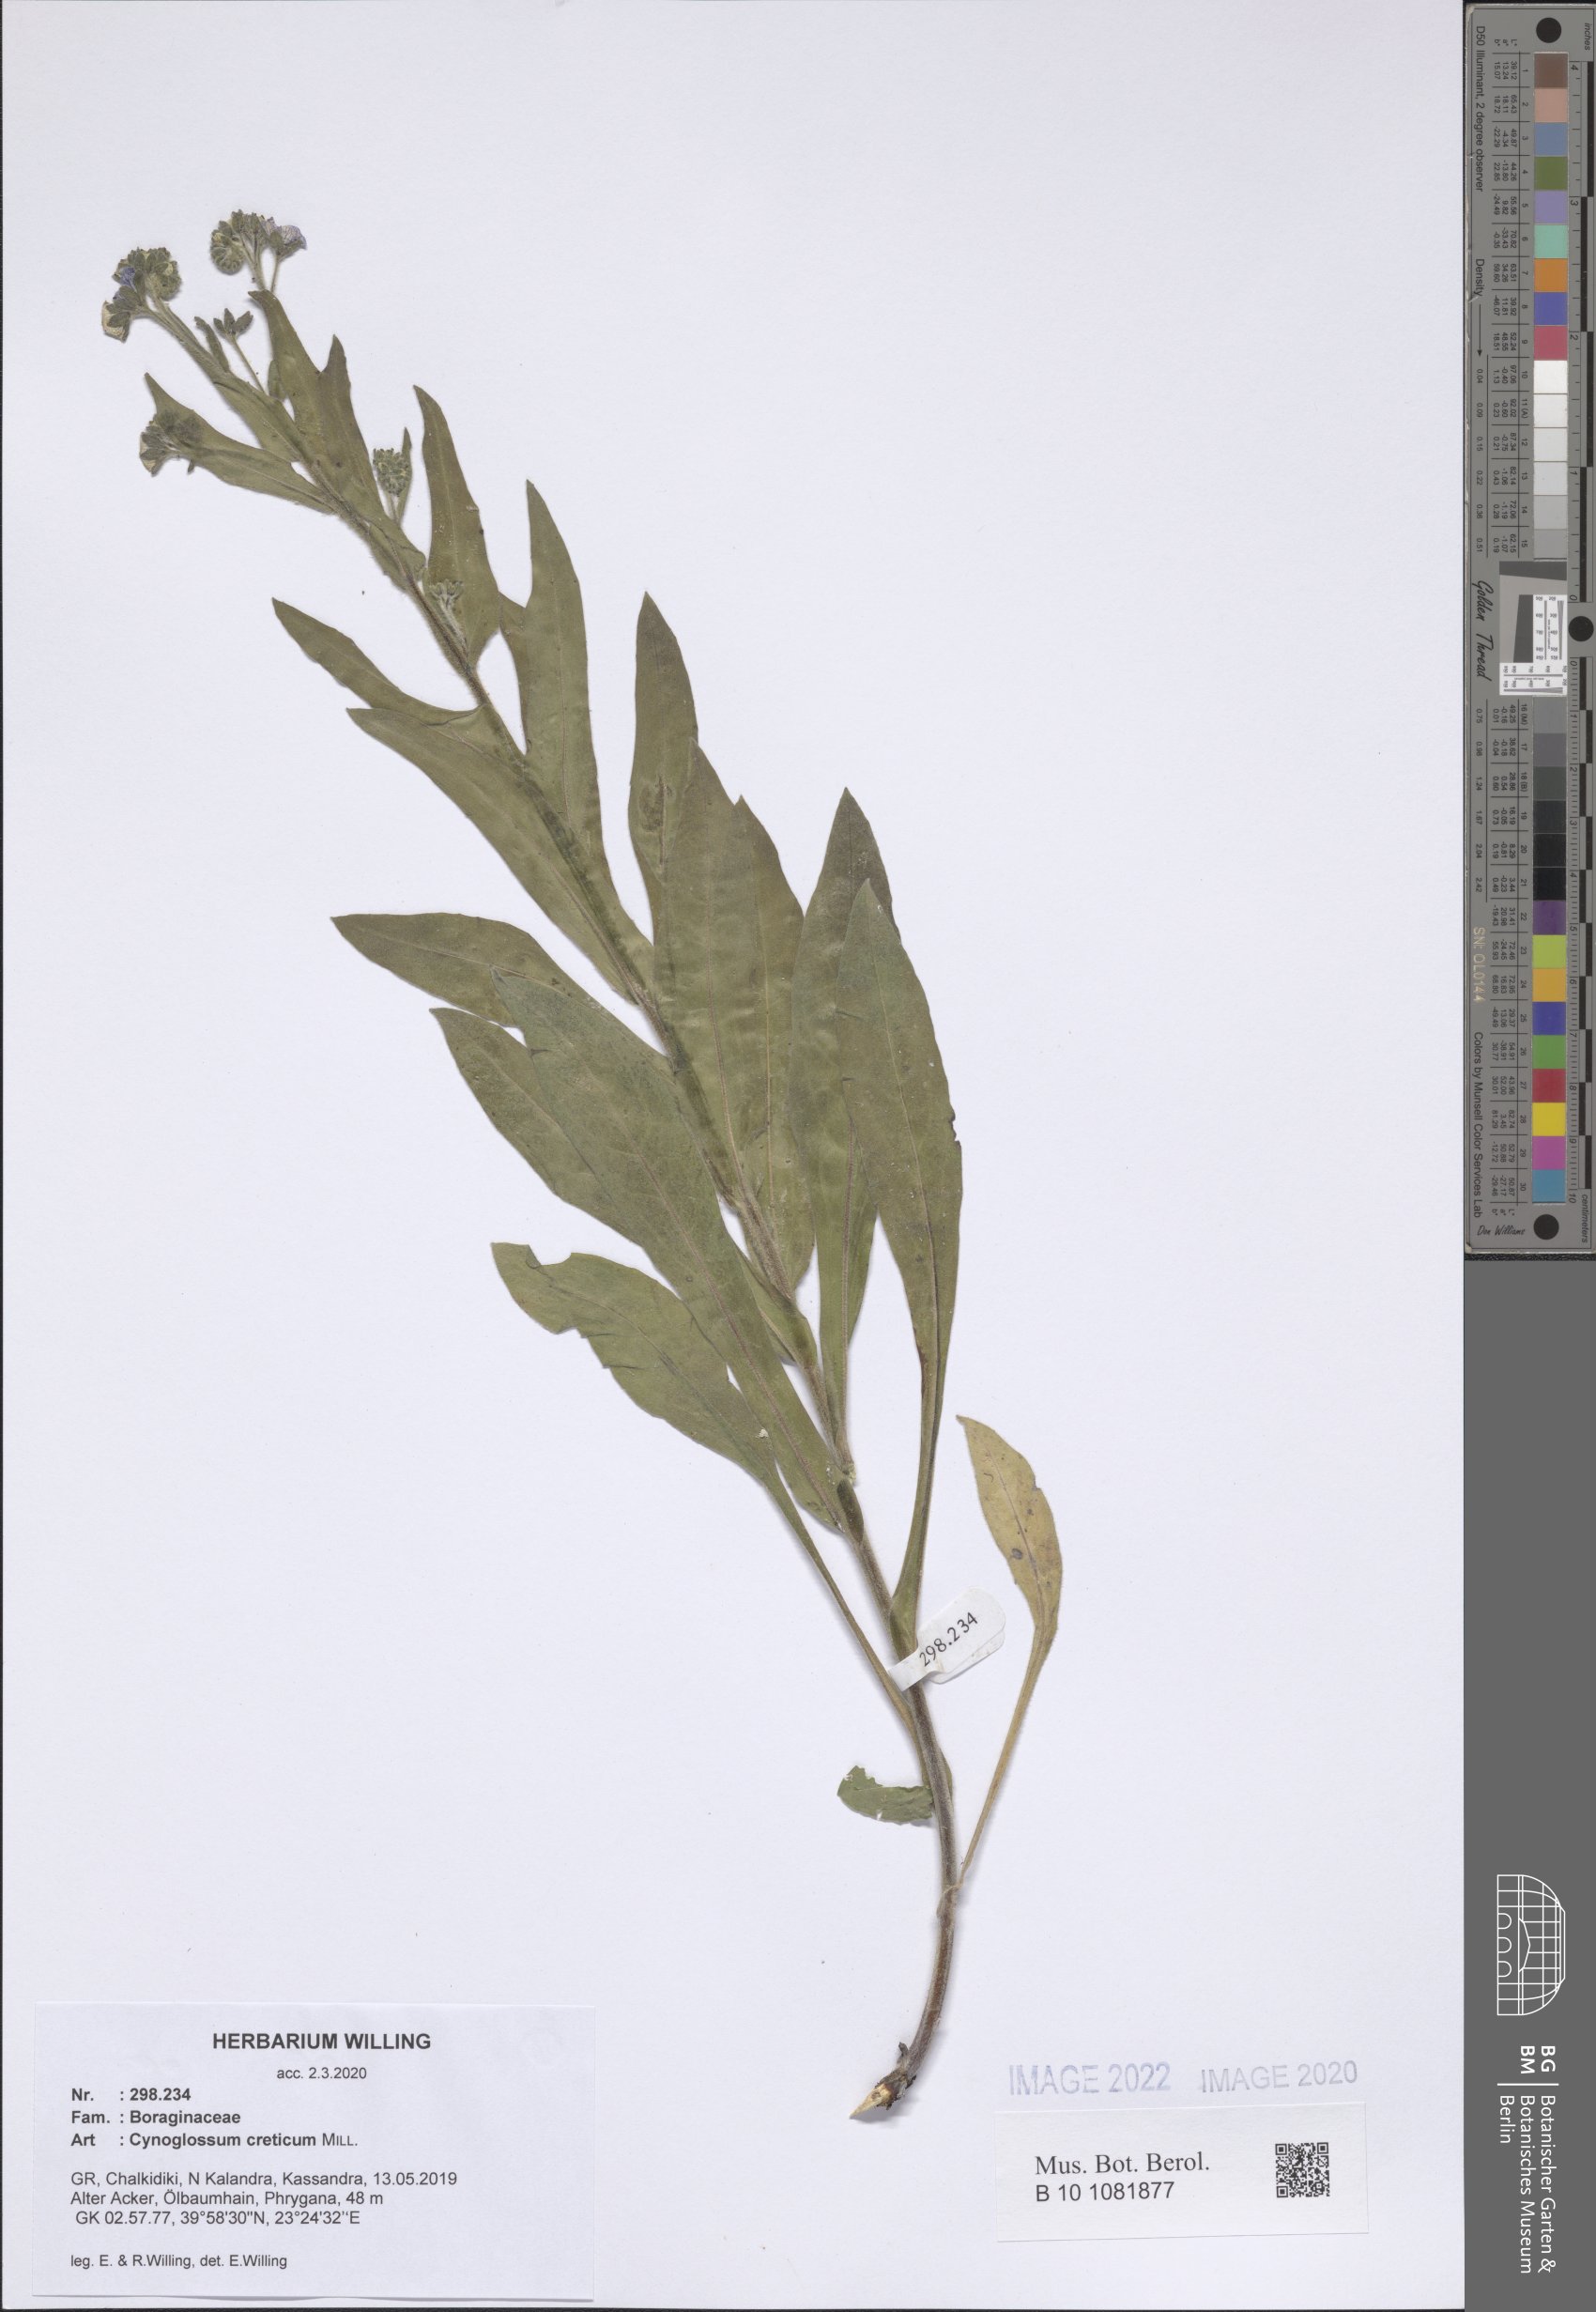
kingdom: Plantae
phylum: Tracheophyta
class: Magnoliopsida
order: Boraginales
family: Boraginaceae
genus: Cynoglossum
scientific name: Cynoglossum creticum
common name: Blue hound's tongue
